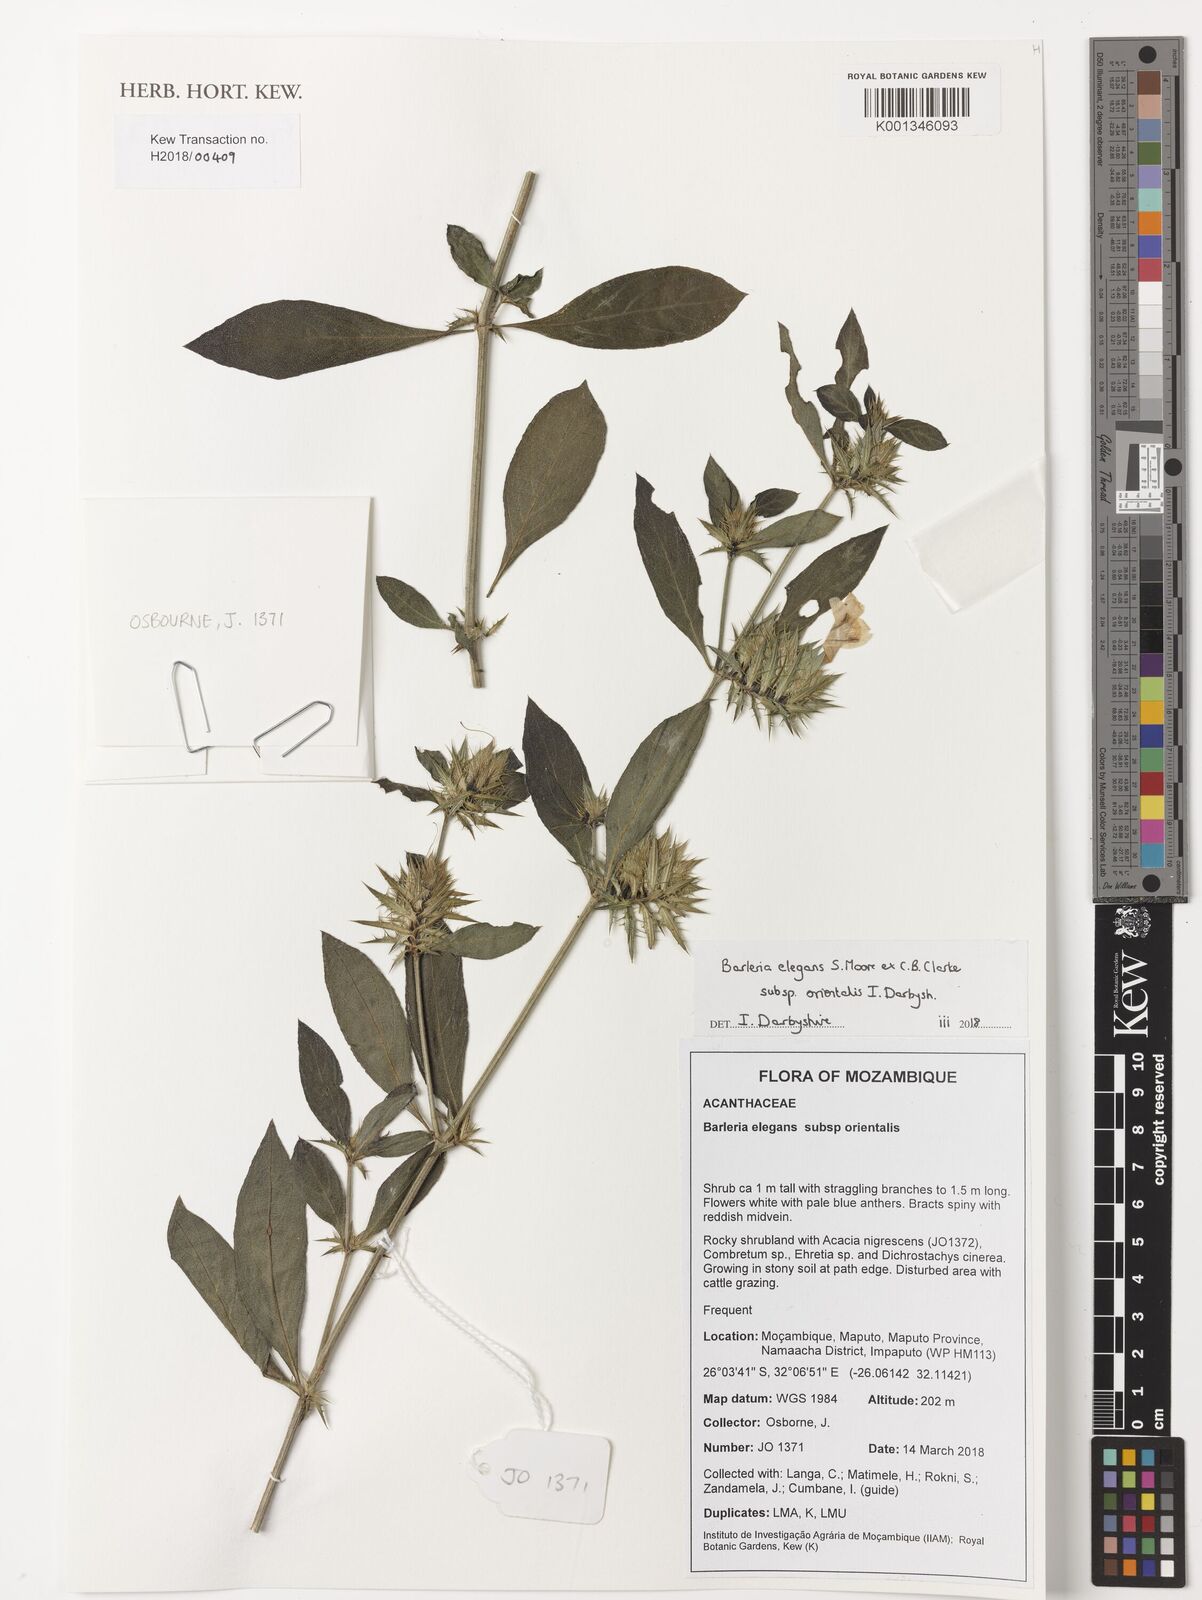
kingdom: Plantae
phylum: Tracheophyta
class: Magnoliopsida
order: Lamiales
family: Acanthaceae
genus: Barleria
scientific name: Barleria elegans
